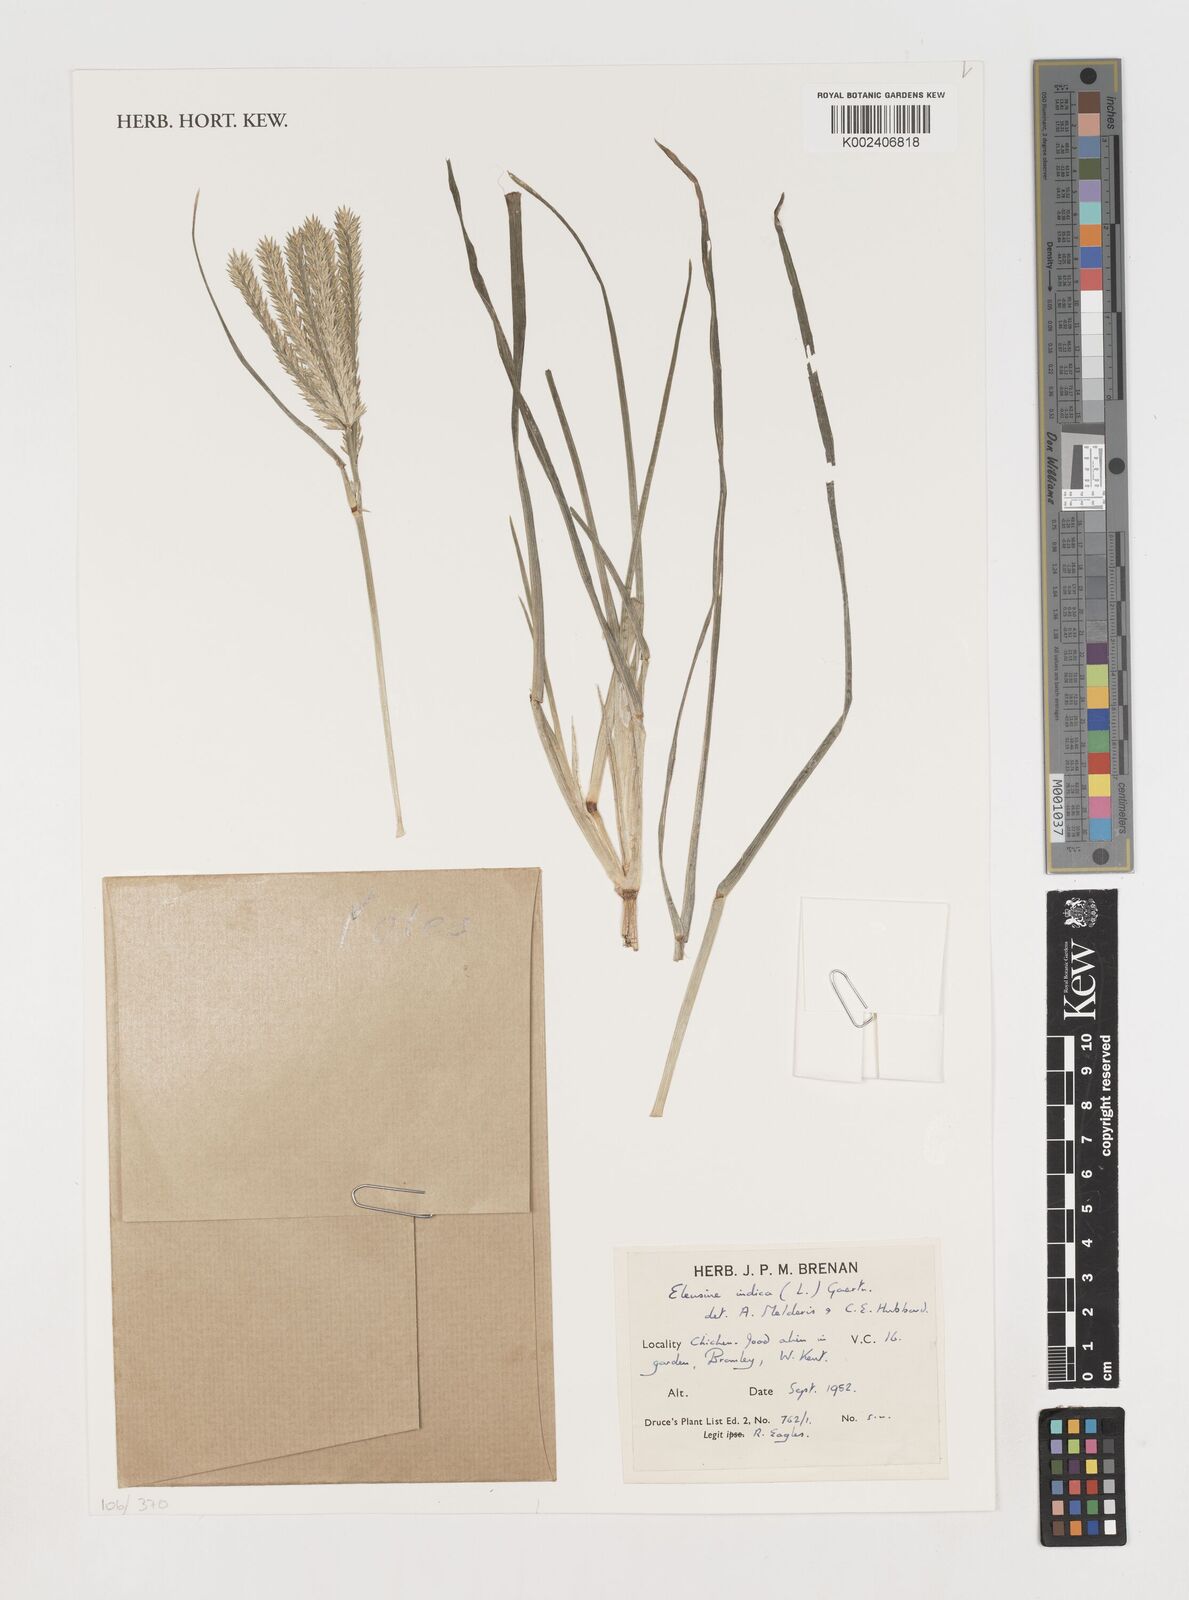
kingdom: Plantae
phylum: Tracheophyta
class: Liliopsida
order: Poales
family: Poaceae
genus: Eleusine
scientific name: Eleusine indica
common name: Yard-grass
